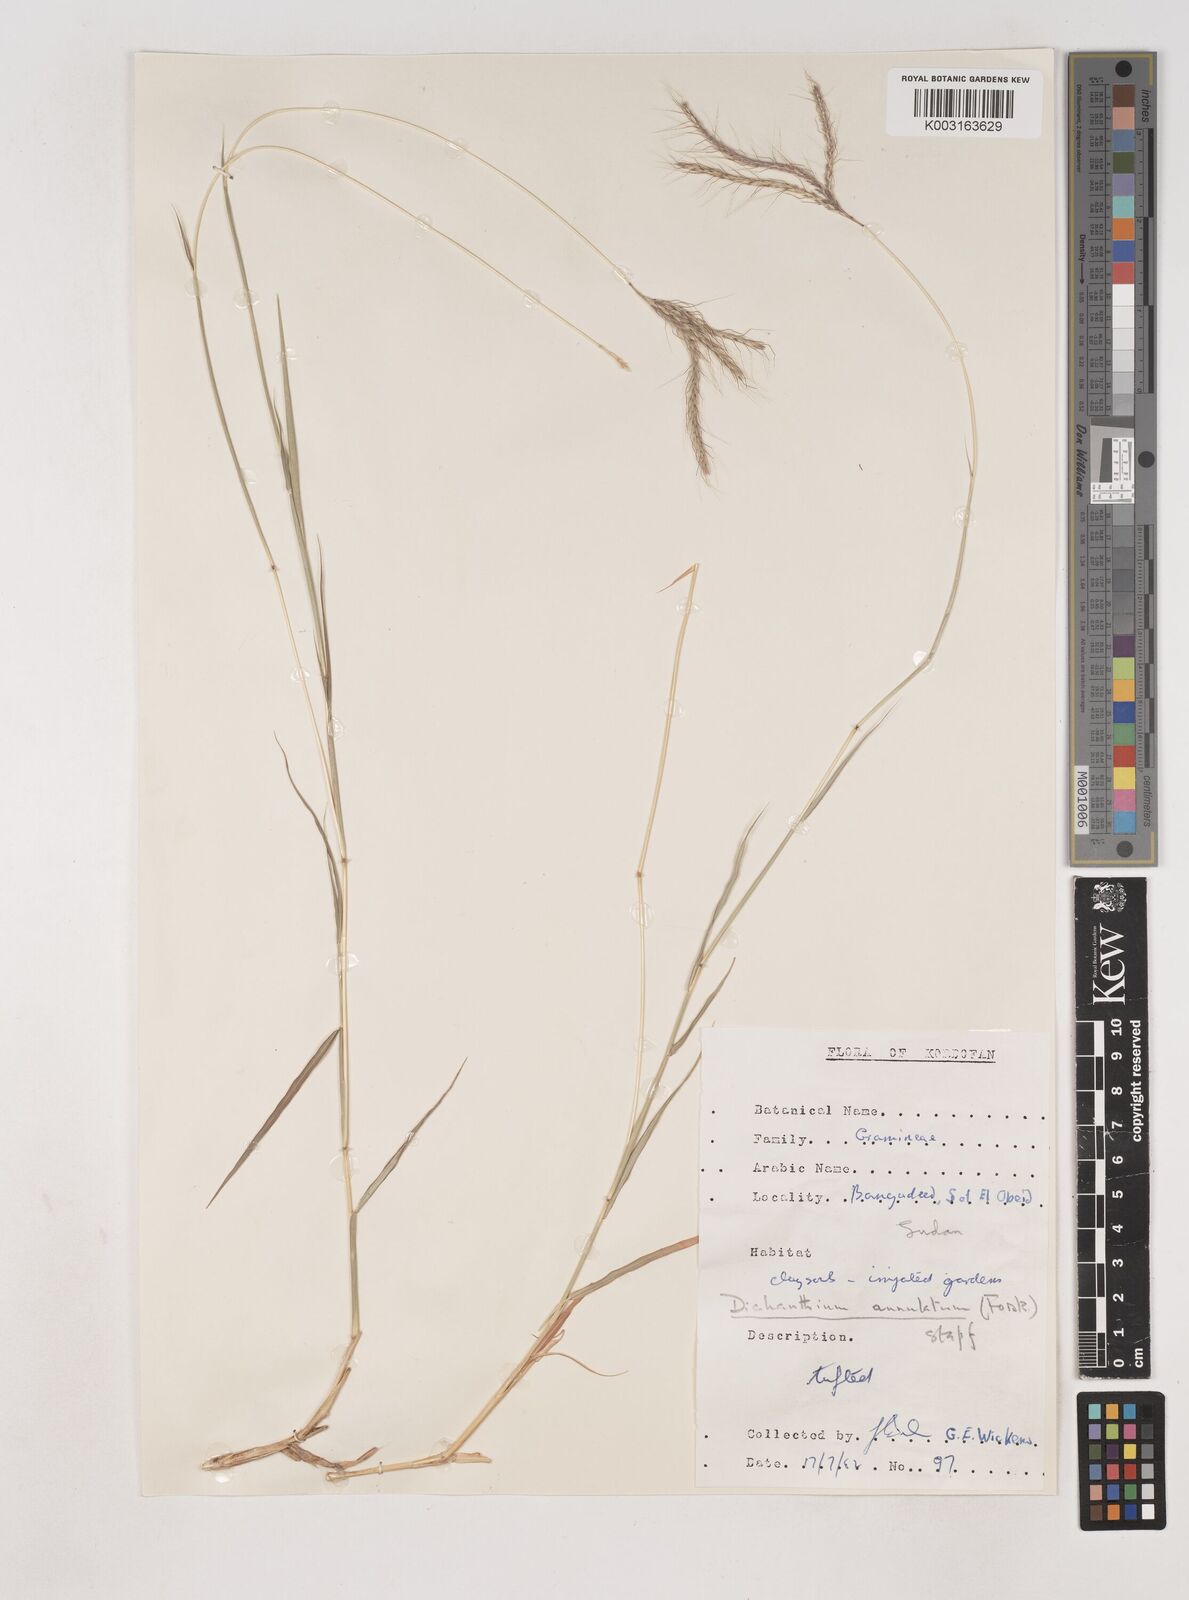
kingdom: Plantae
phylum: Tracheophyta
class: Liliopsida
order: Poales
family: Poaceae
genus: Dichanthium
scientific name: Dichanthium annulatum
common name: Kleberg's bluestem
